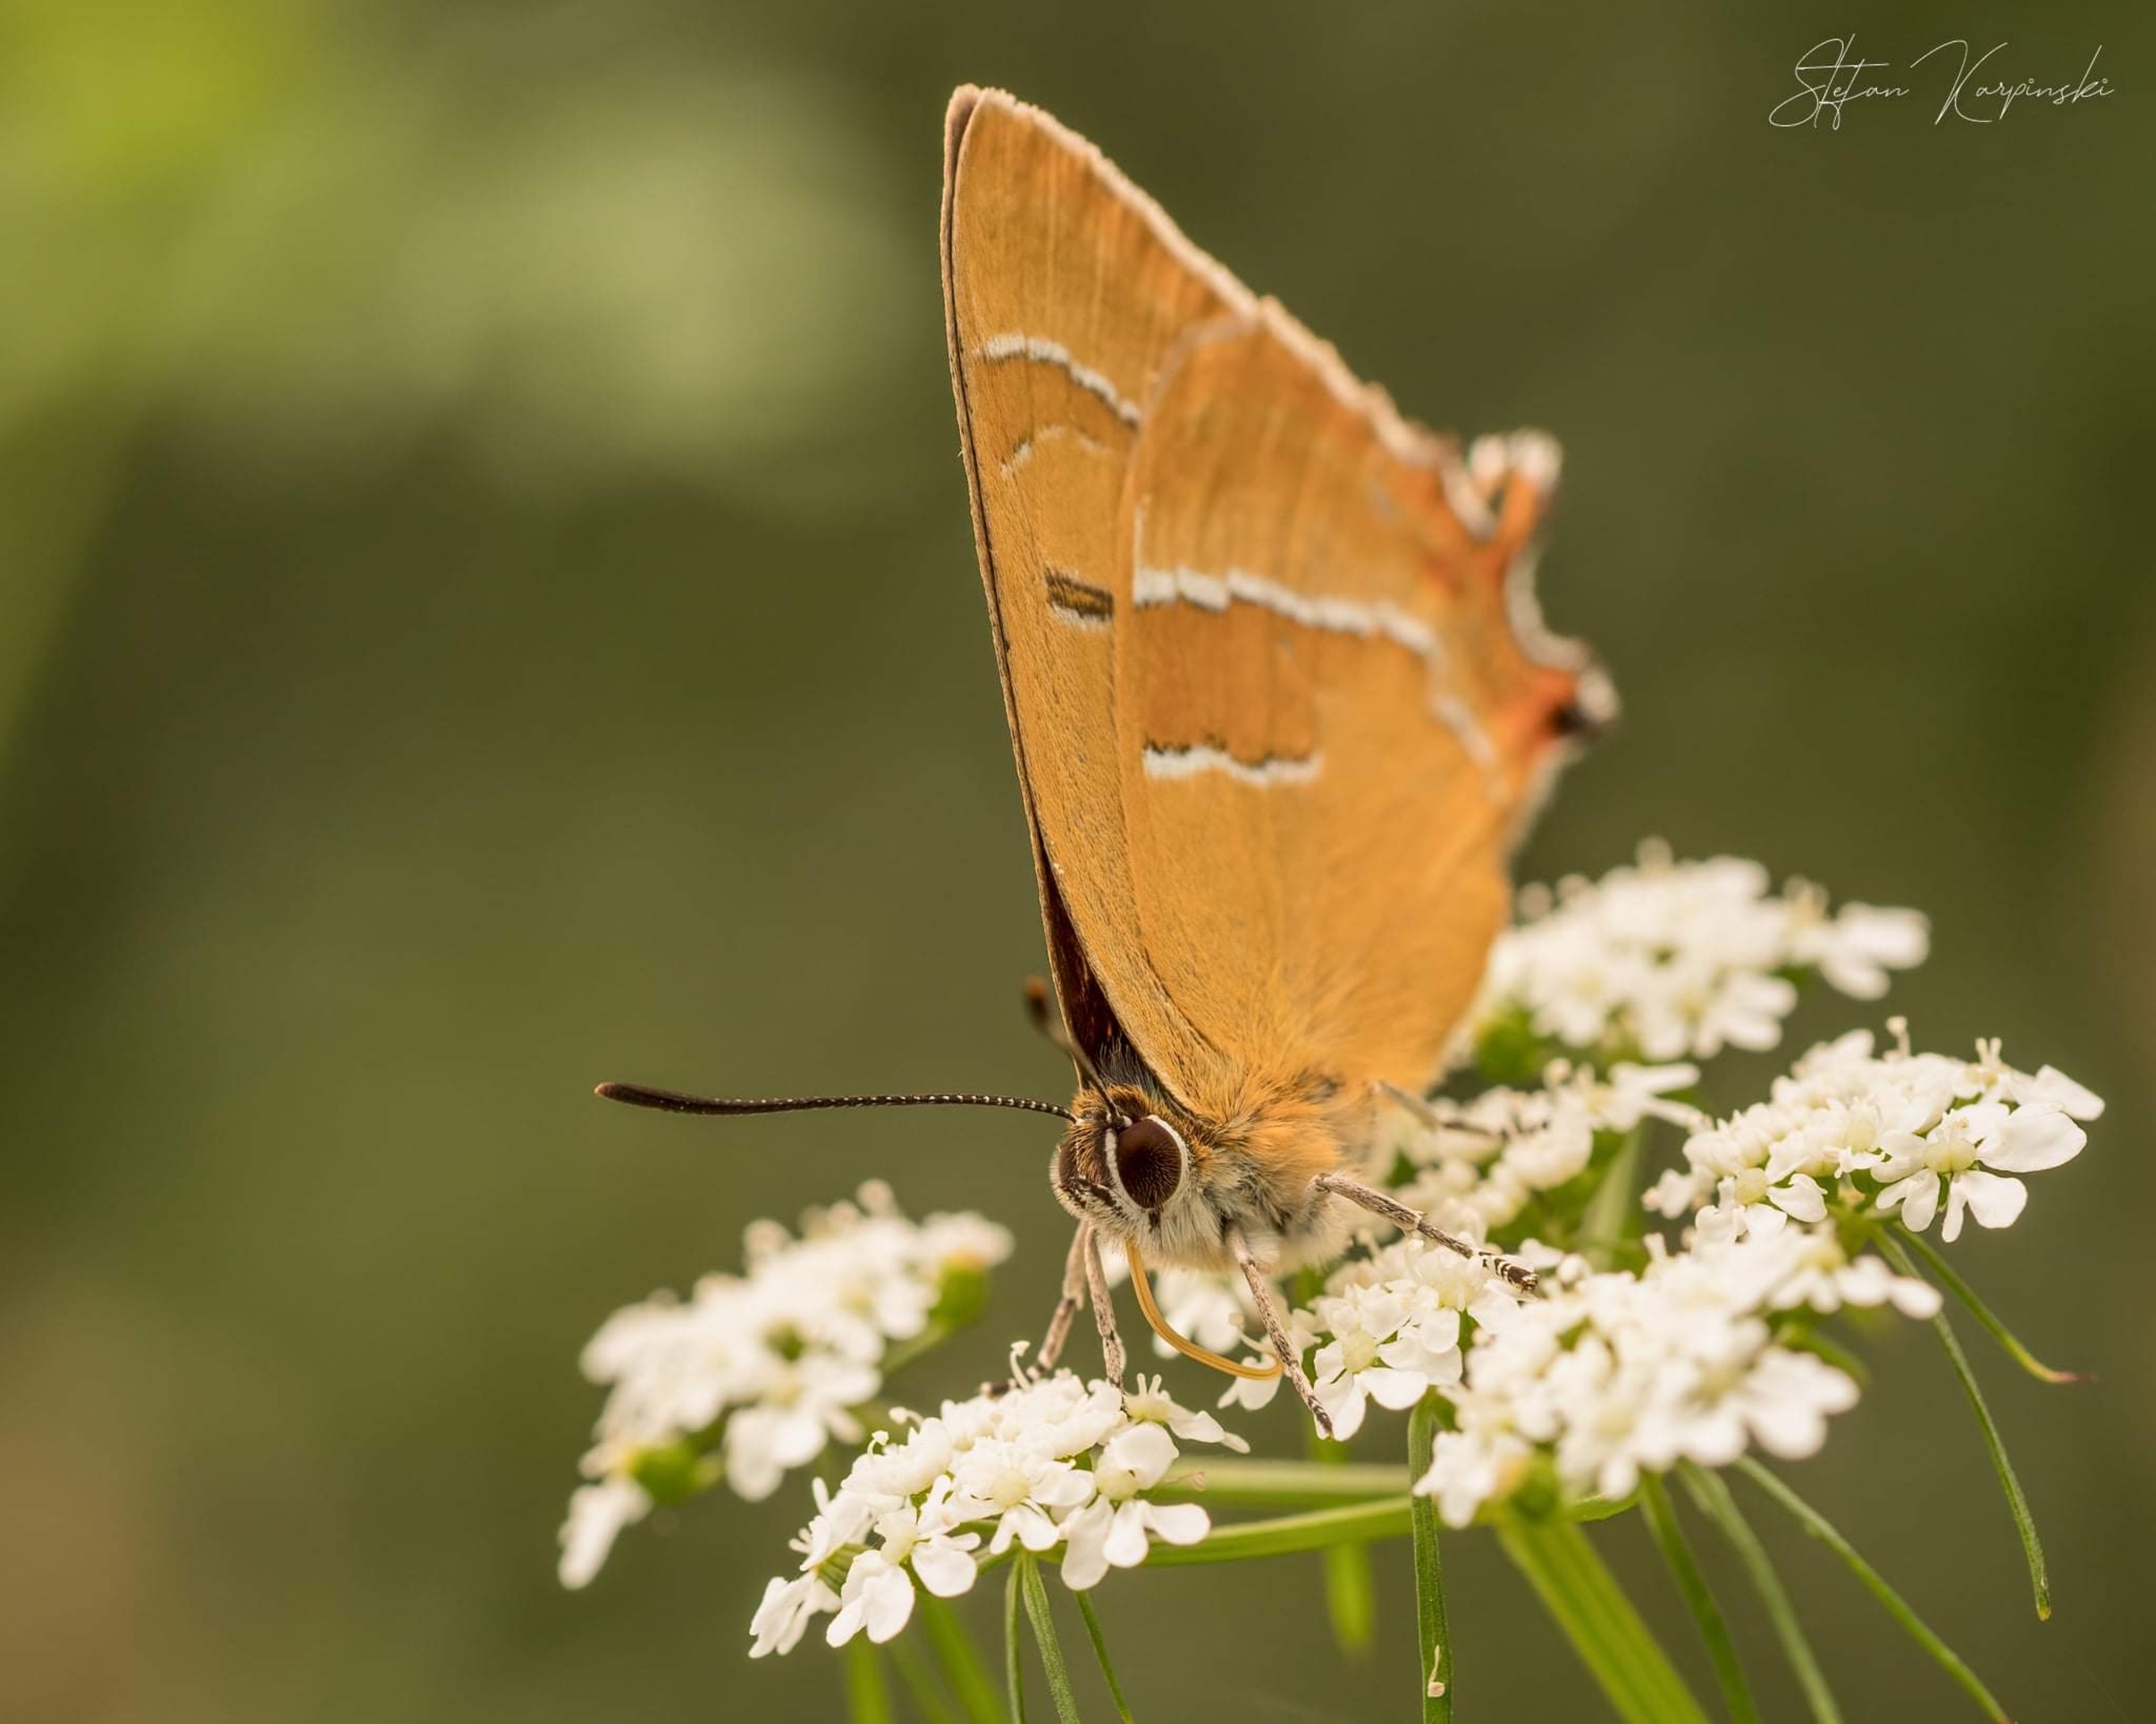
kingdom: Animalia
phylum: Arthropoda
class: Insecta
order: Lepidoptera
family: Lycaenidae
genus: Thecla
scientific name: Thecla betulae
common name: Guldhale
